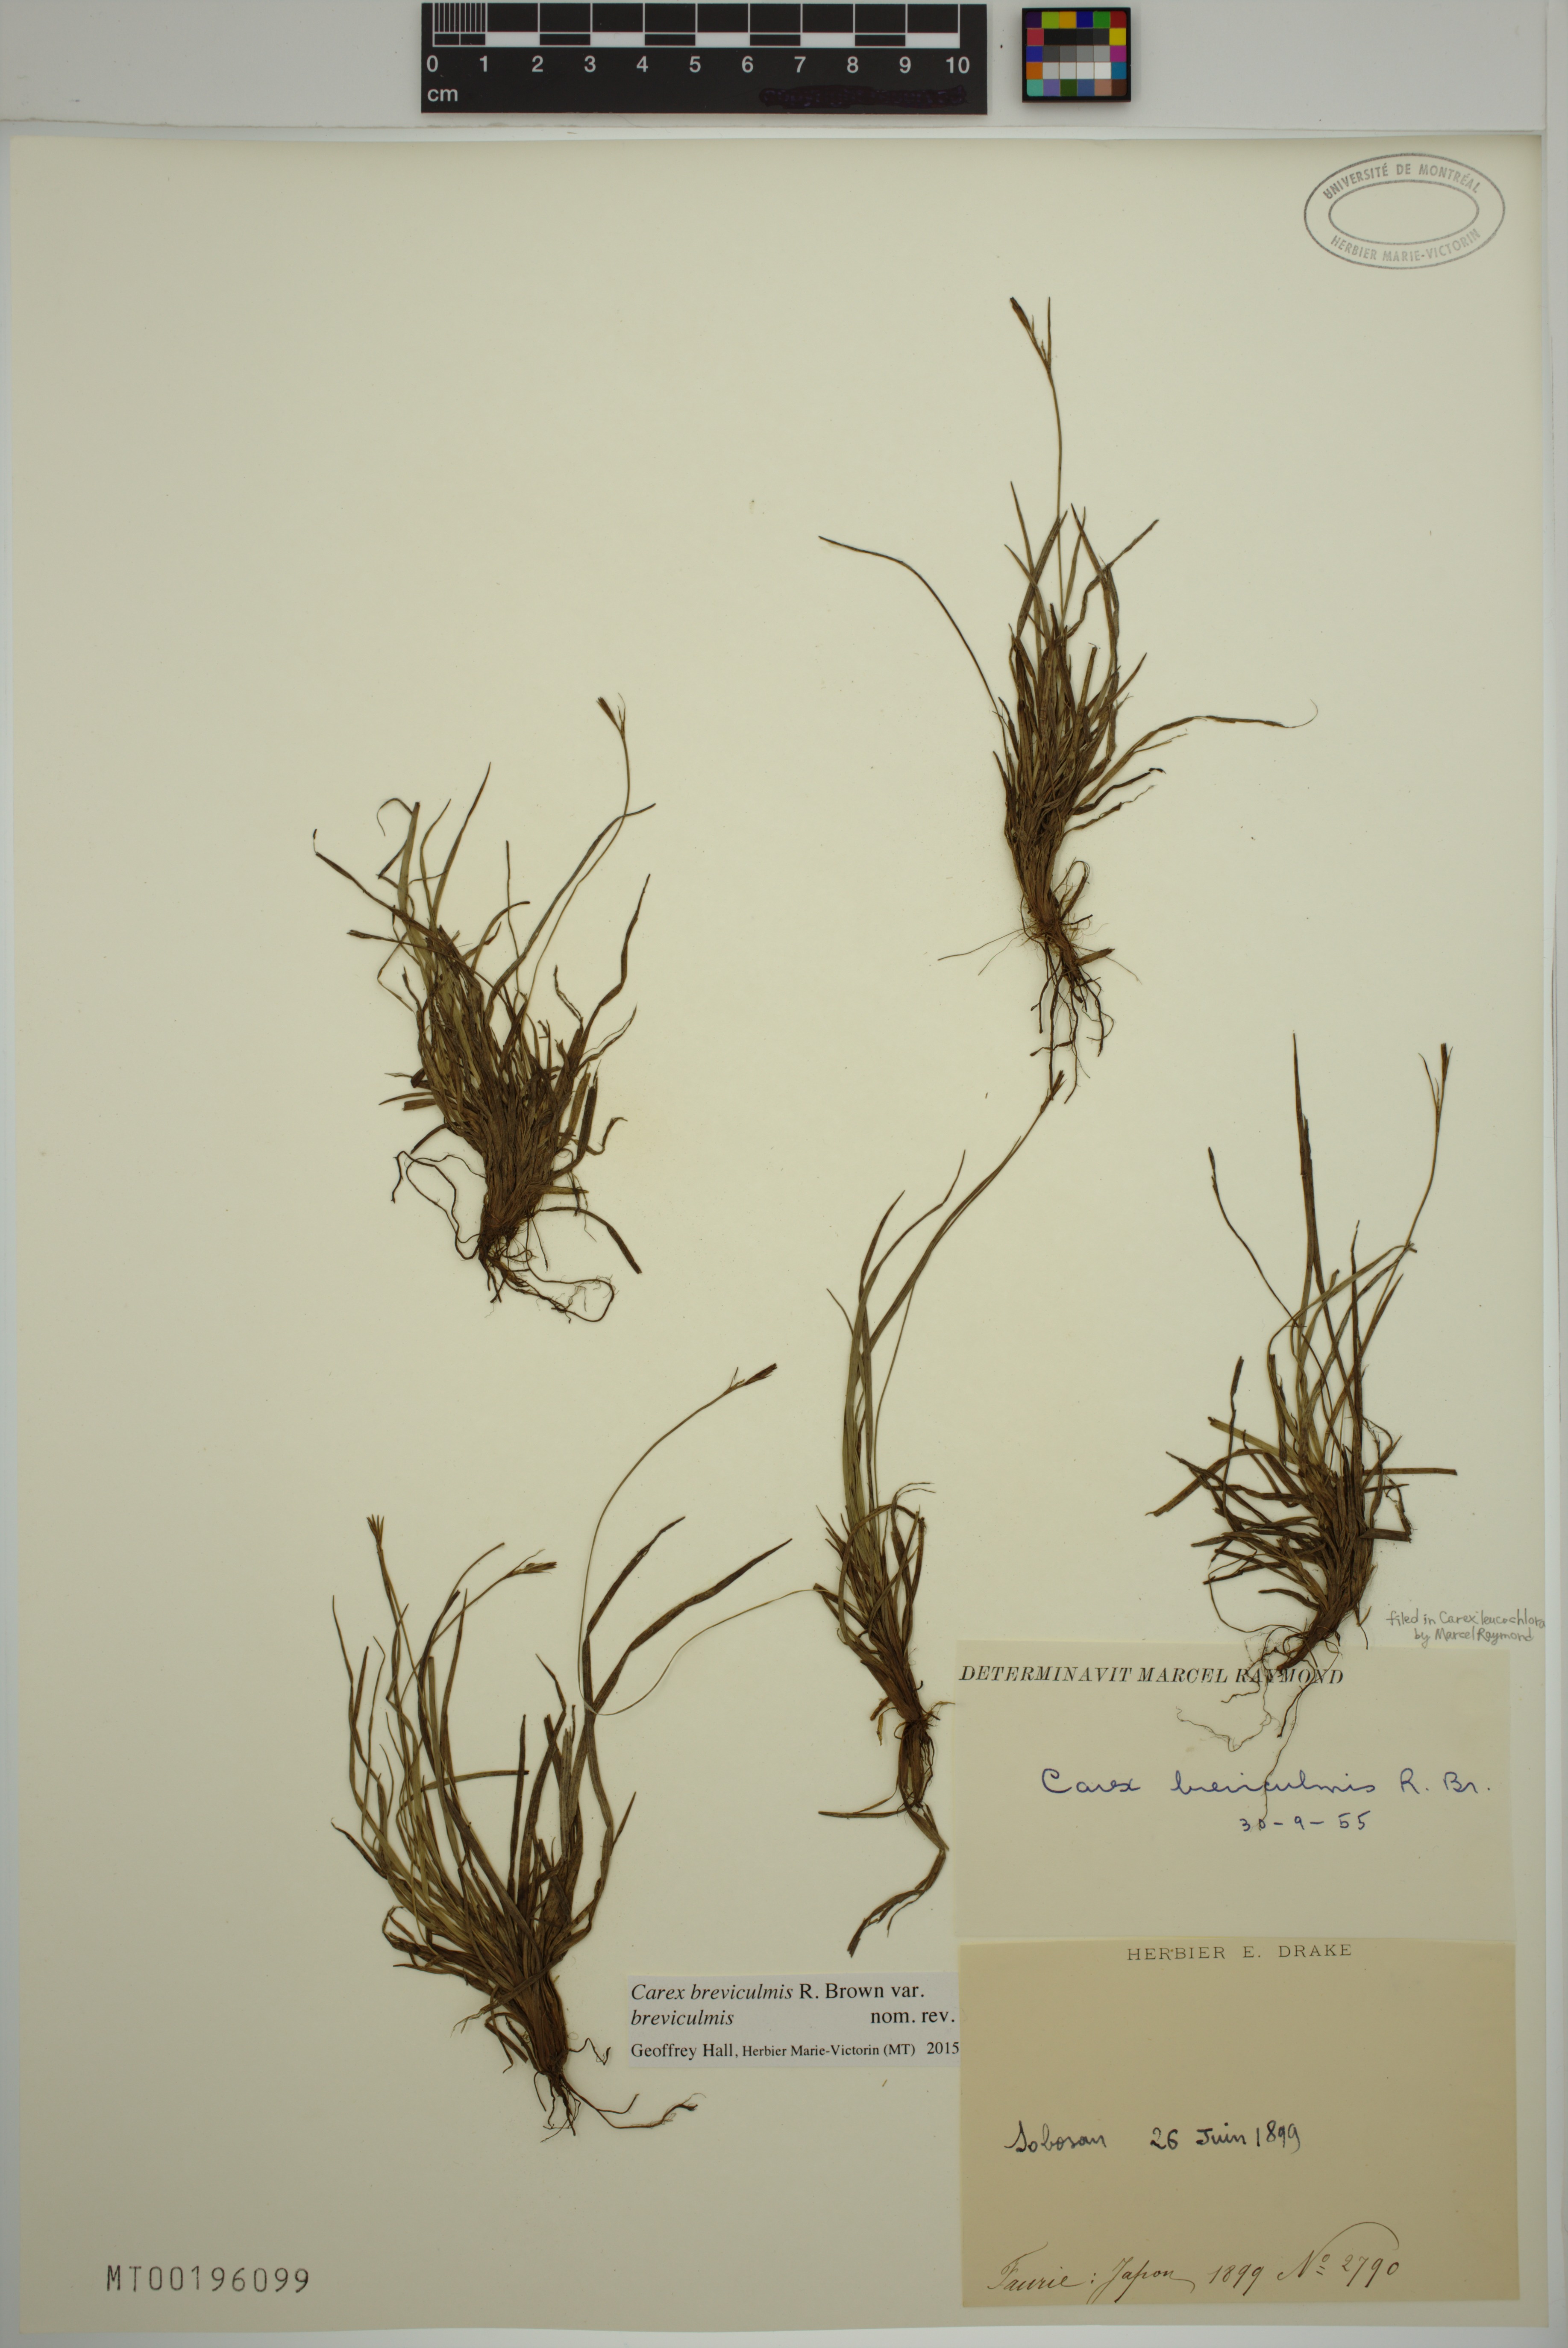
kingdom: Plantae
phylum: Tracheophyta
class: Liliopsida
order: Poales
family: Cyperaceae
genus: Carex
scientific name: Carex breviculmis
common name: Asian shortstem sedge
